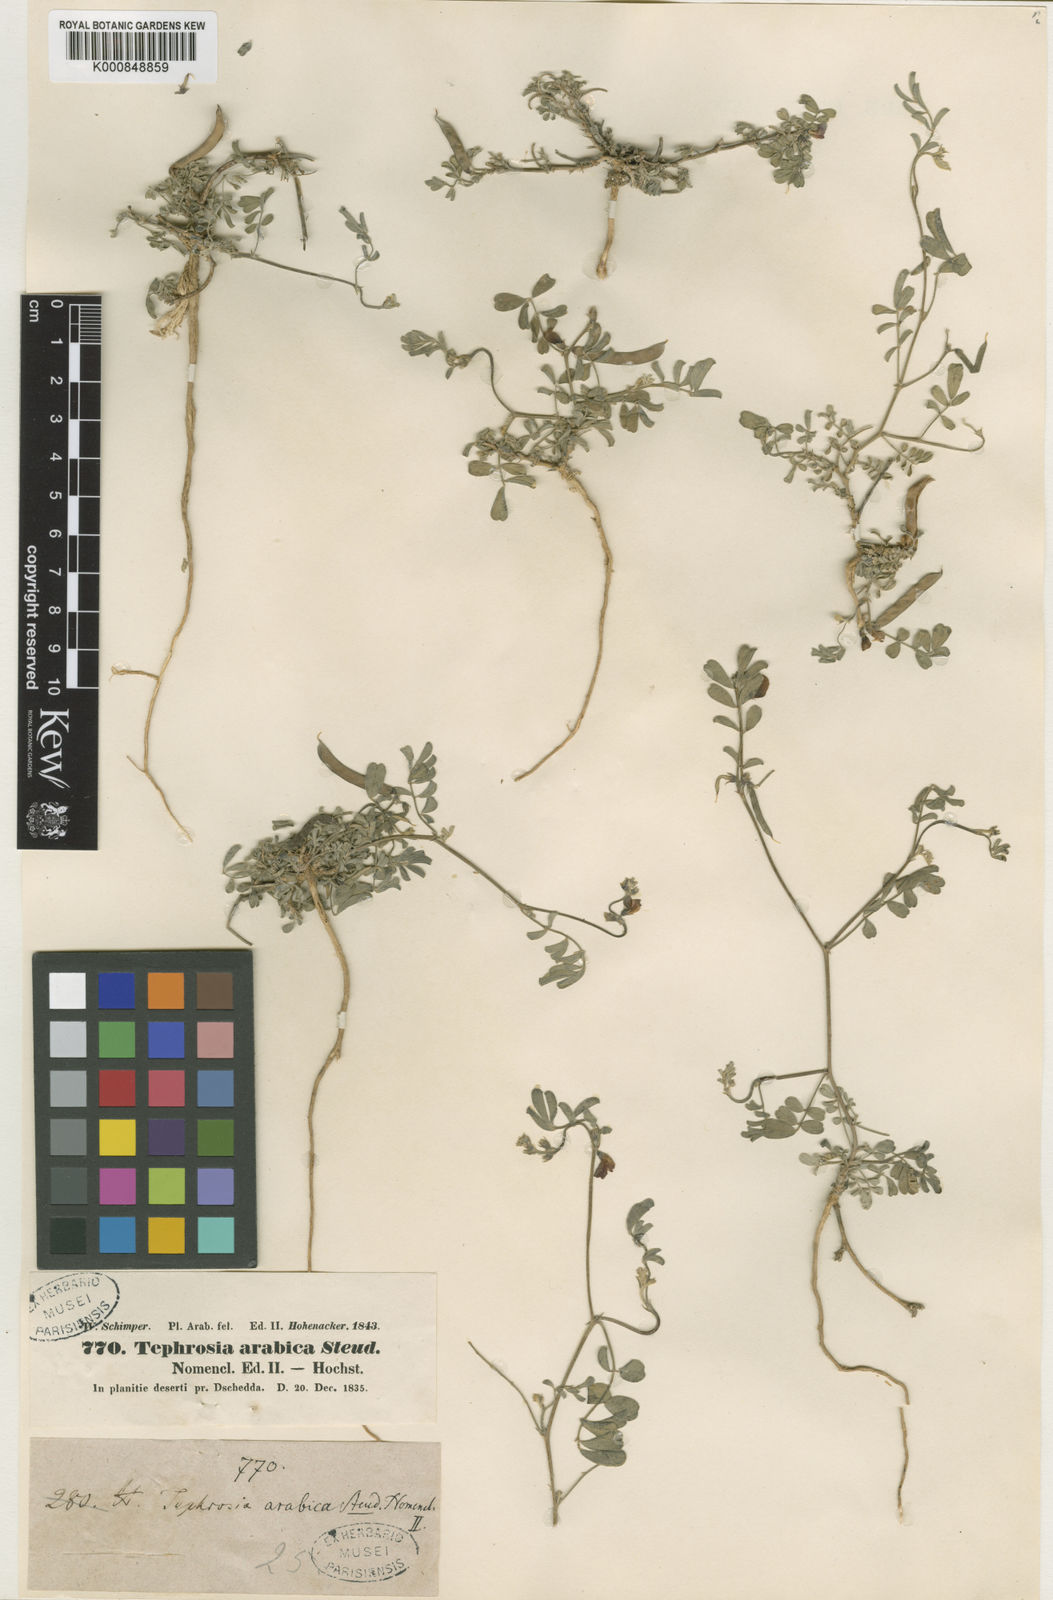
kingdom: Plantae
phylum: Tracheophyta
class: Magnoliopsida
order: Fabales
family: Fabaceae
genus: Tephrosia
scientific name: Tephrosia purpurea
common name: Fishpoison
